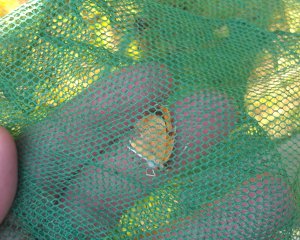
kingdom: Animalia
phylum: Arthropoda
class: Insecta
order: Lepidoptera
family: Nymphalidae
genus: Phyciodes
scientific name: Phyciodes tharos
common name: Northern Crescent
